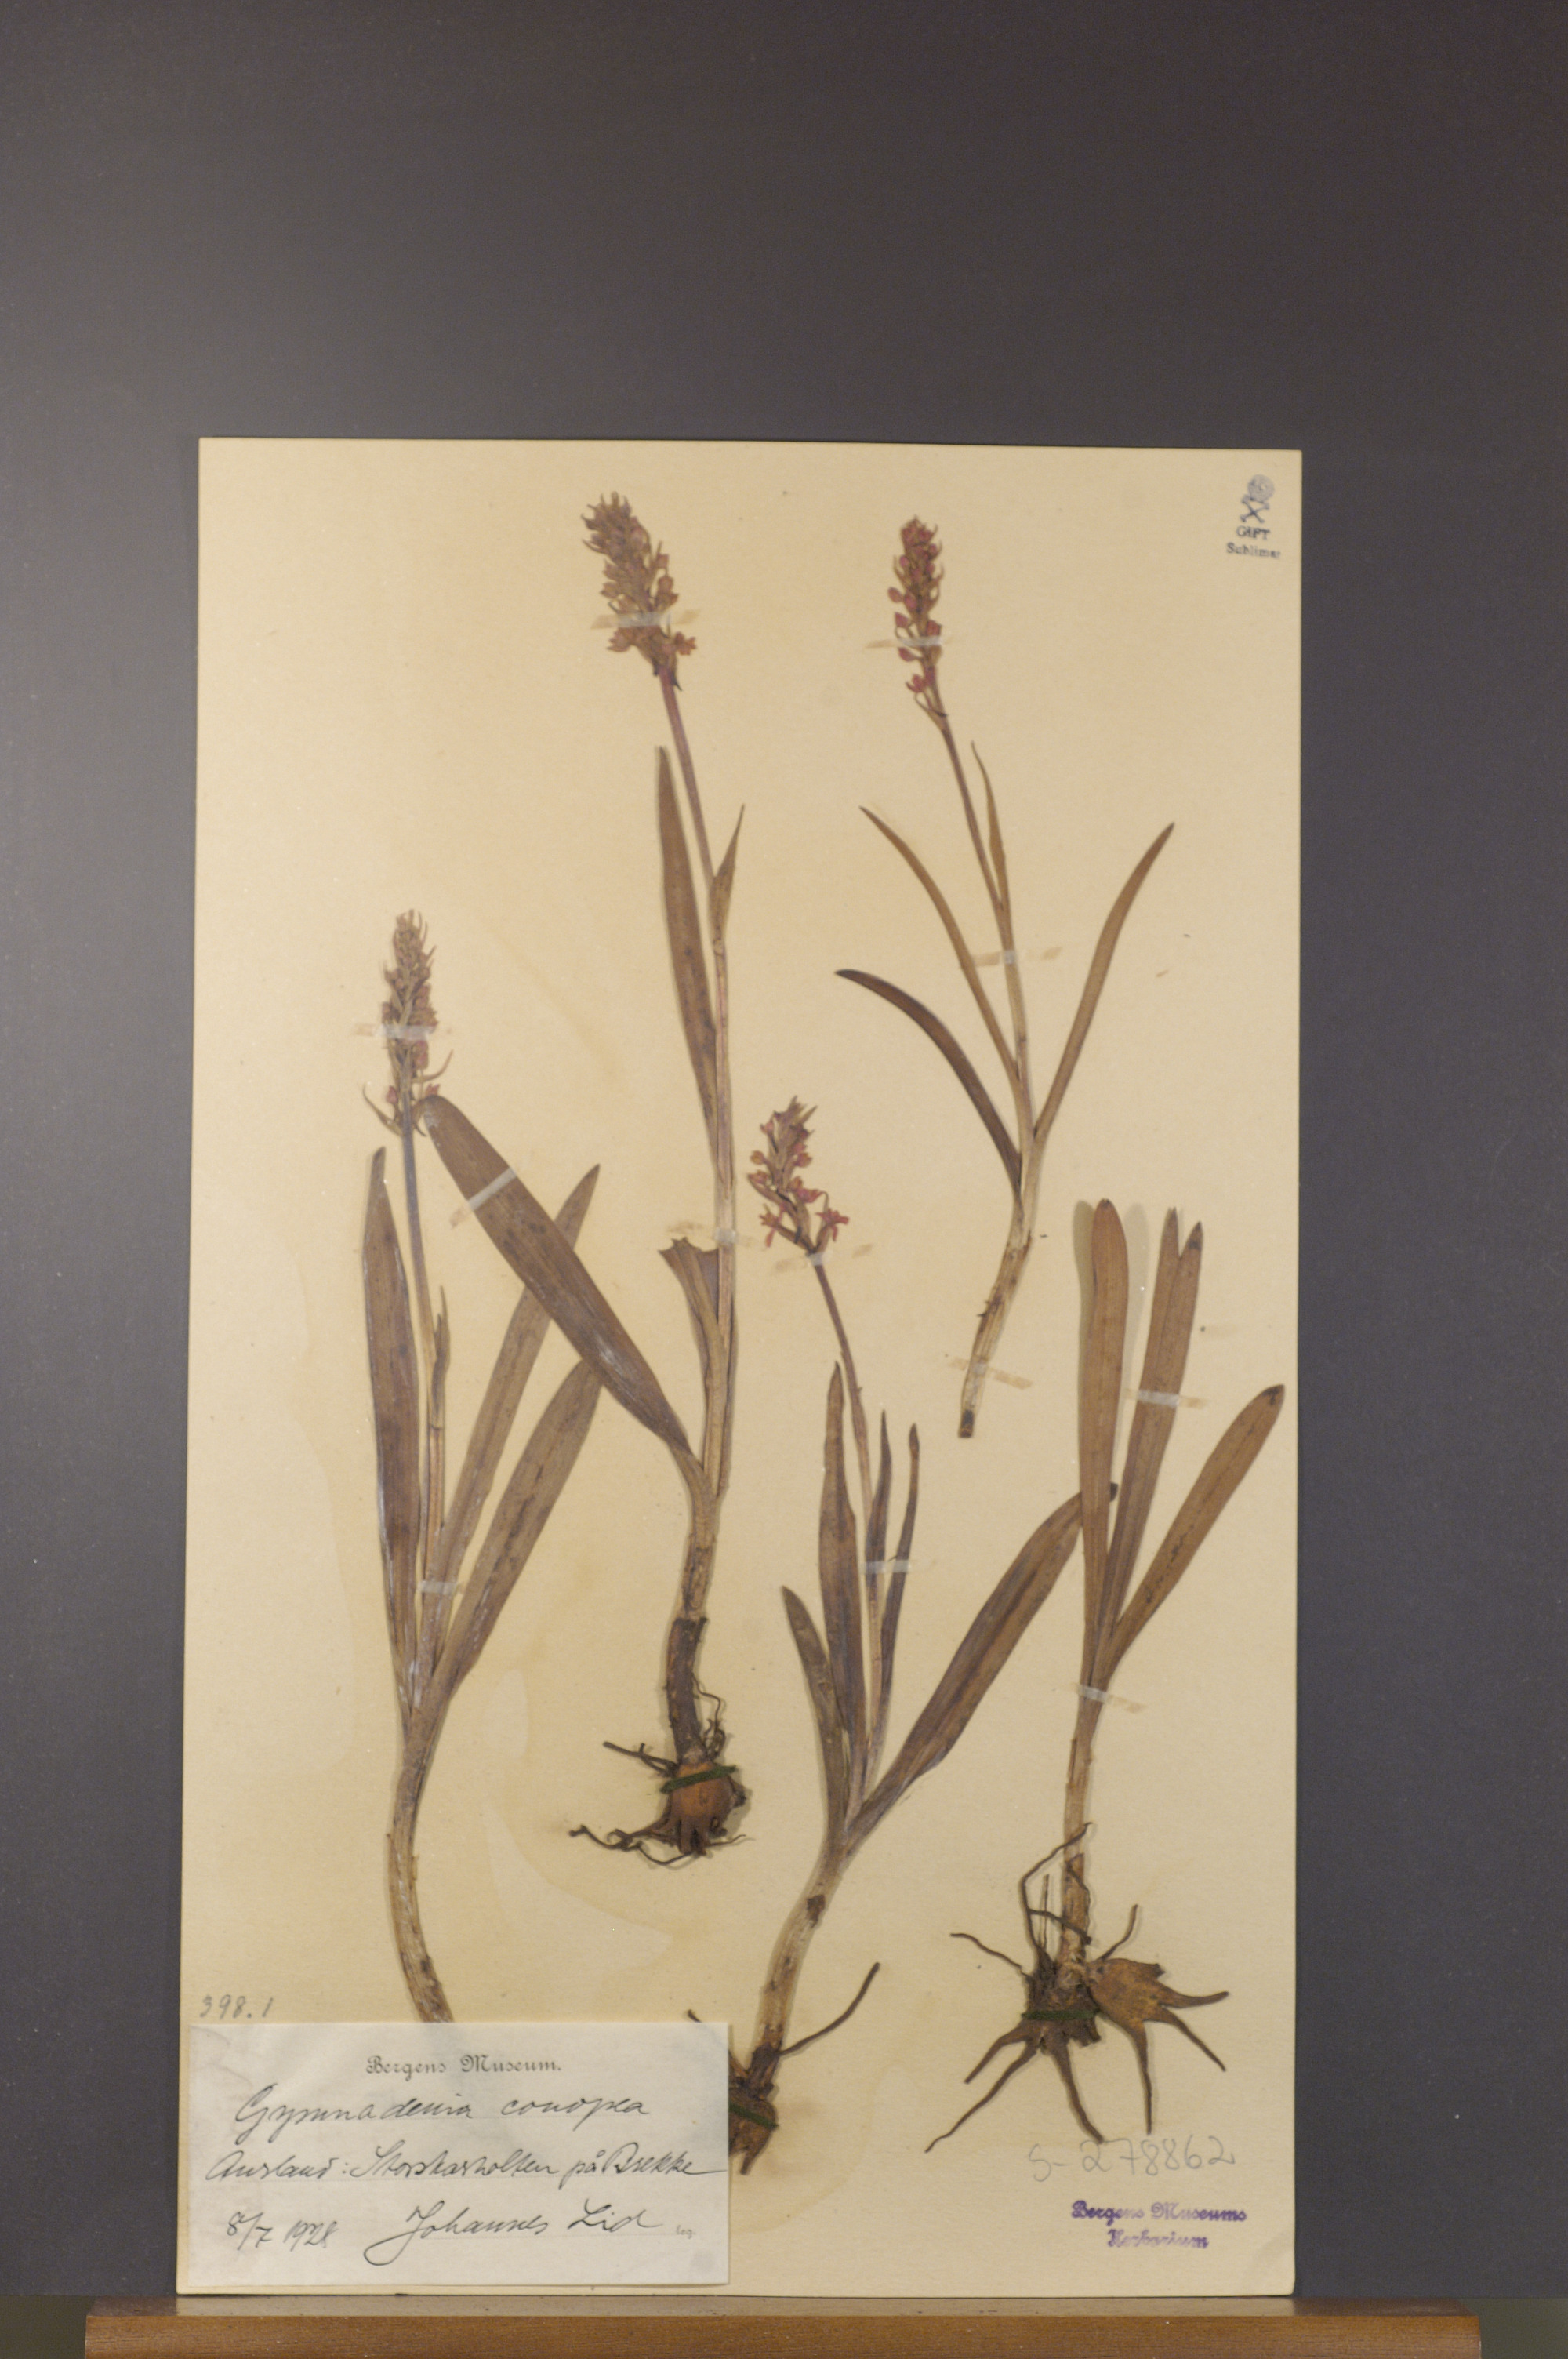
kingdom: Plantae
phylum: Tracheophyta
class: Liliopsida
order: Asparagales
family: Orchidaceae
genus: Gymnadenia
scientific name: Gymnadenia conopsea
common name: Fragrant orchid
